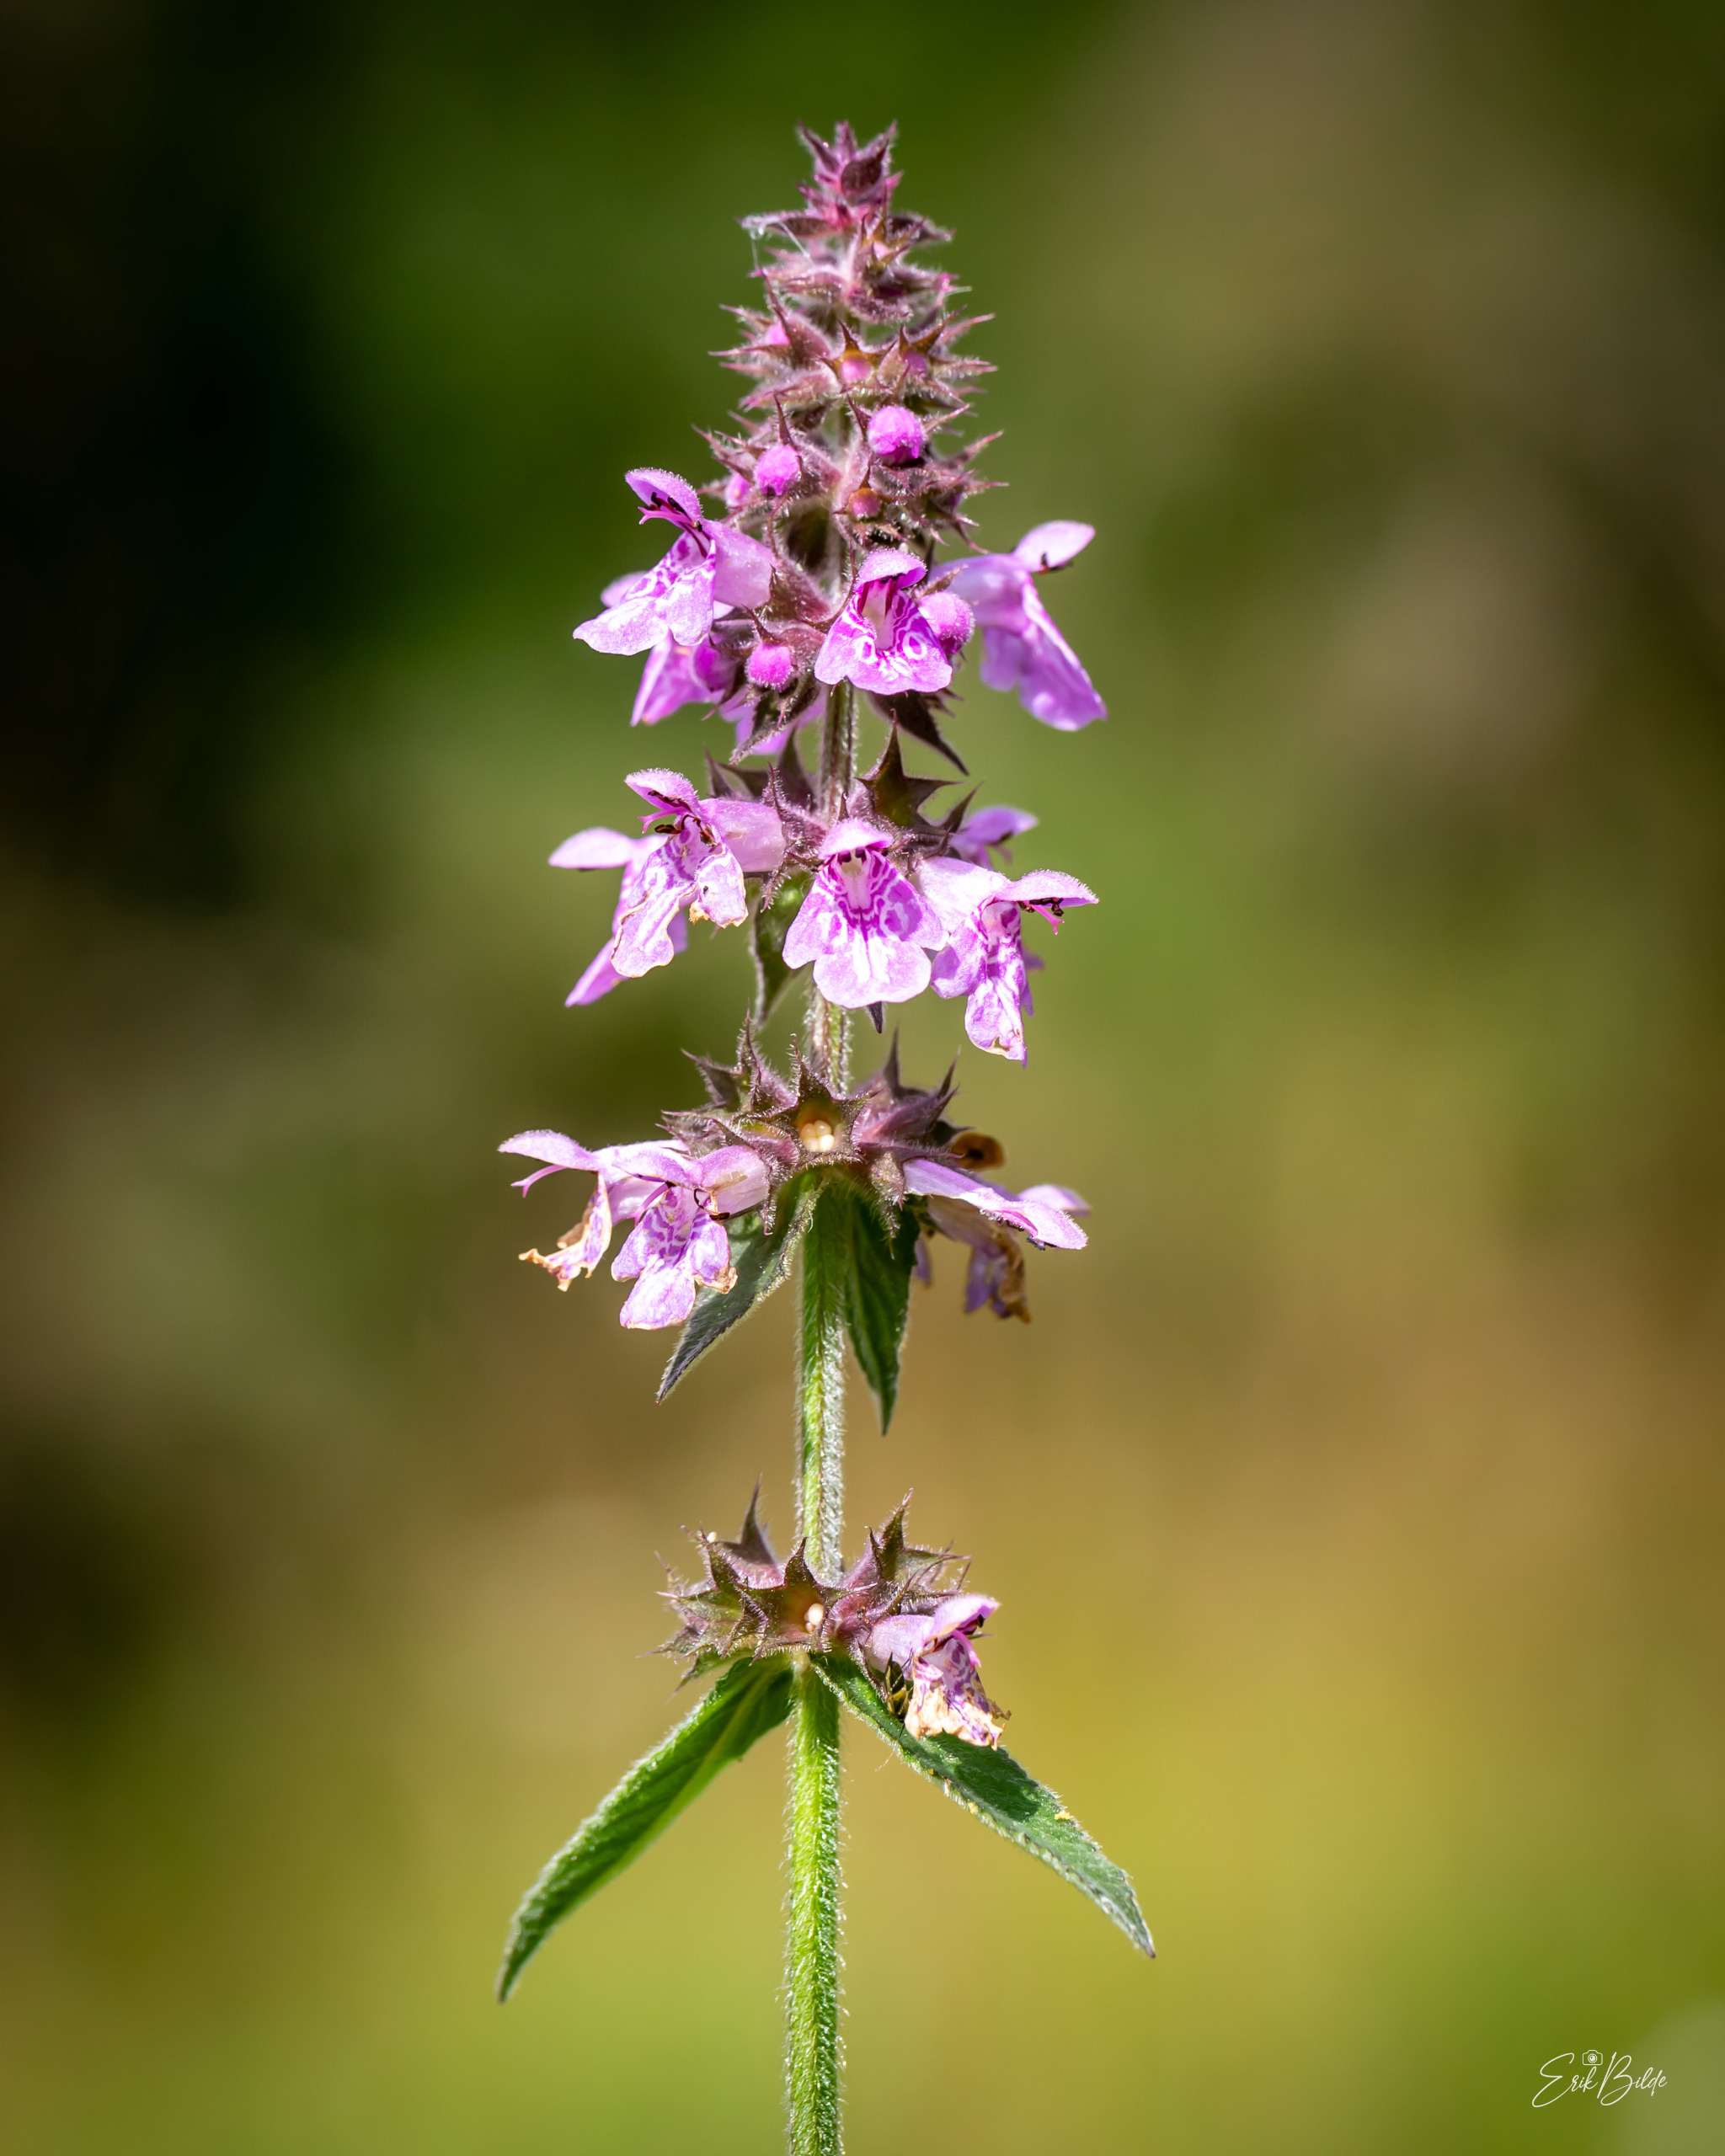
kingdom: Plantae
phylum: Tracheophyta
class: Magnoliopsida
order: Lamiales
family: Lamiaceae
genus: Stachys
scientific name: Stachys palustris
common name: Kær-galtetand
